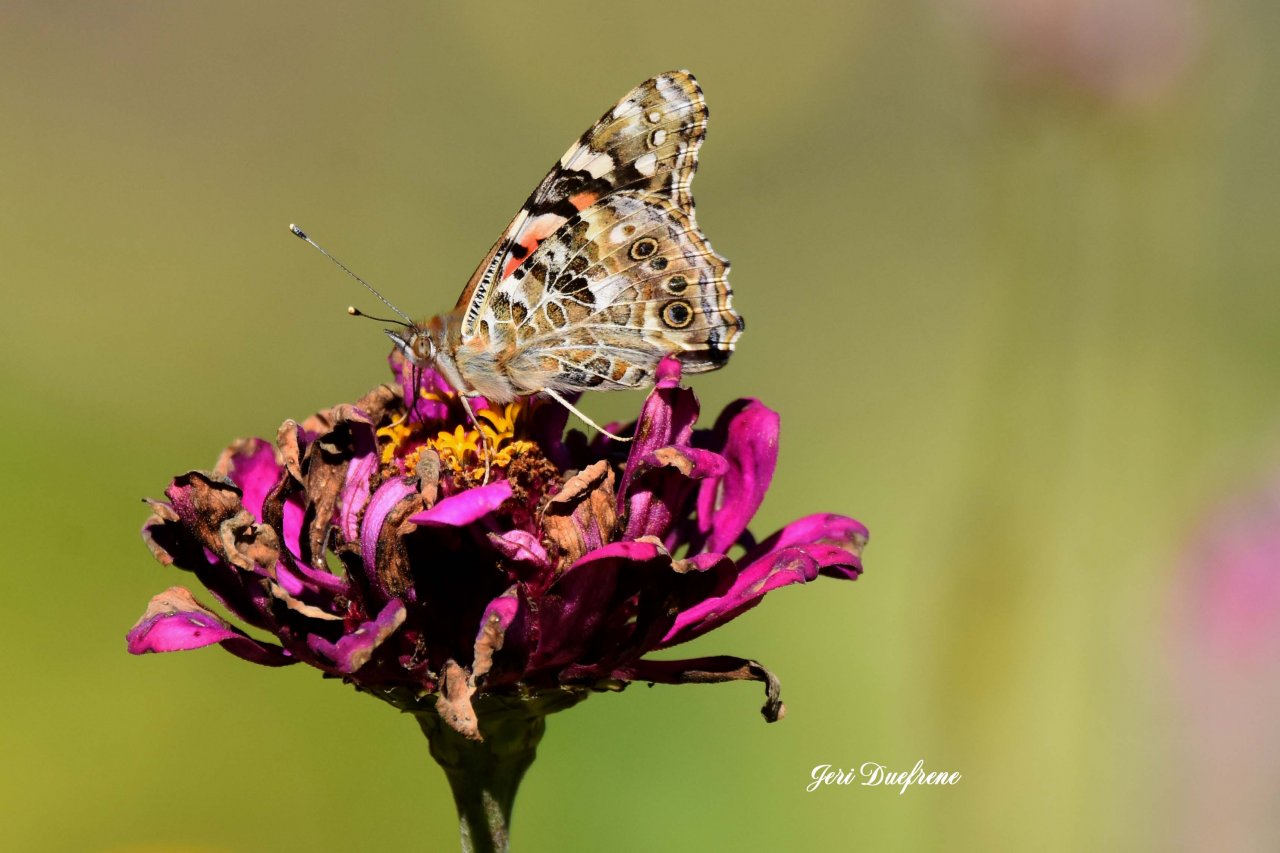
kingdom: Animalia
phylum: Arthropoda
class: Insecta
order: Lepidoptera
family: Nymphalidae
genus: Vanessa
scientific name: Vanessa virginiensis
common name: American Lady
